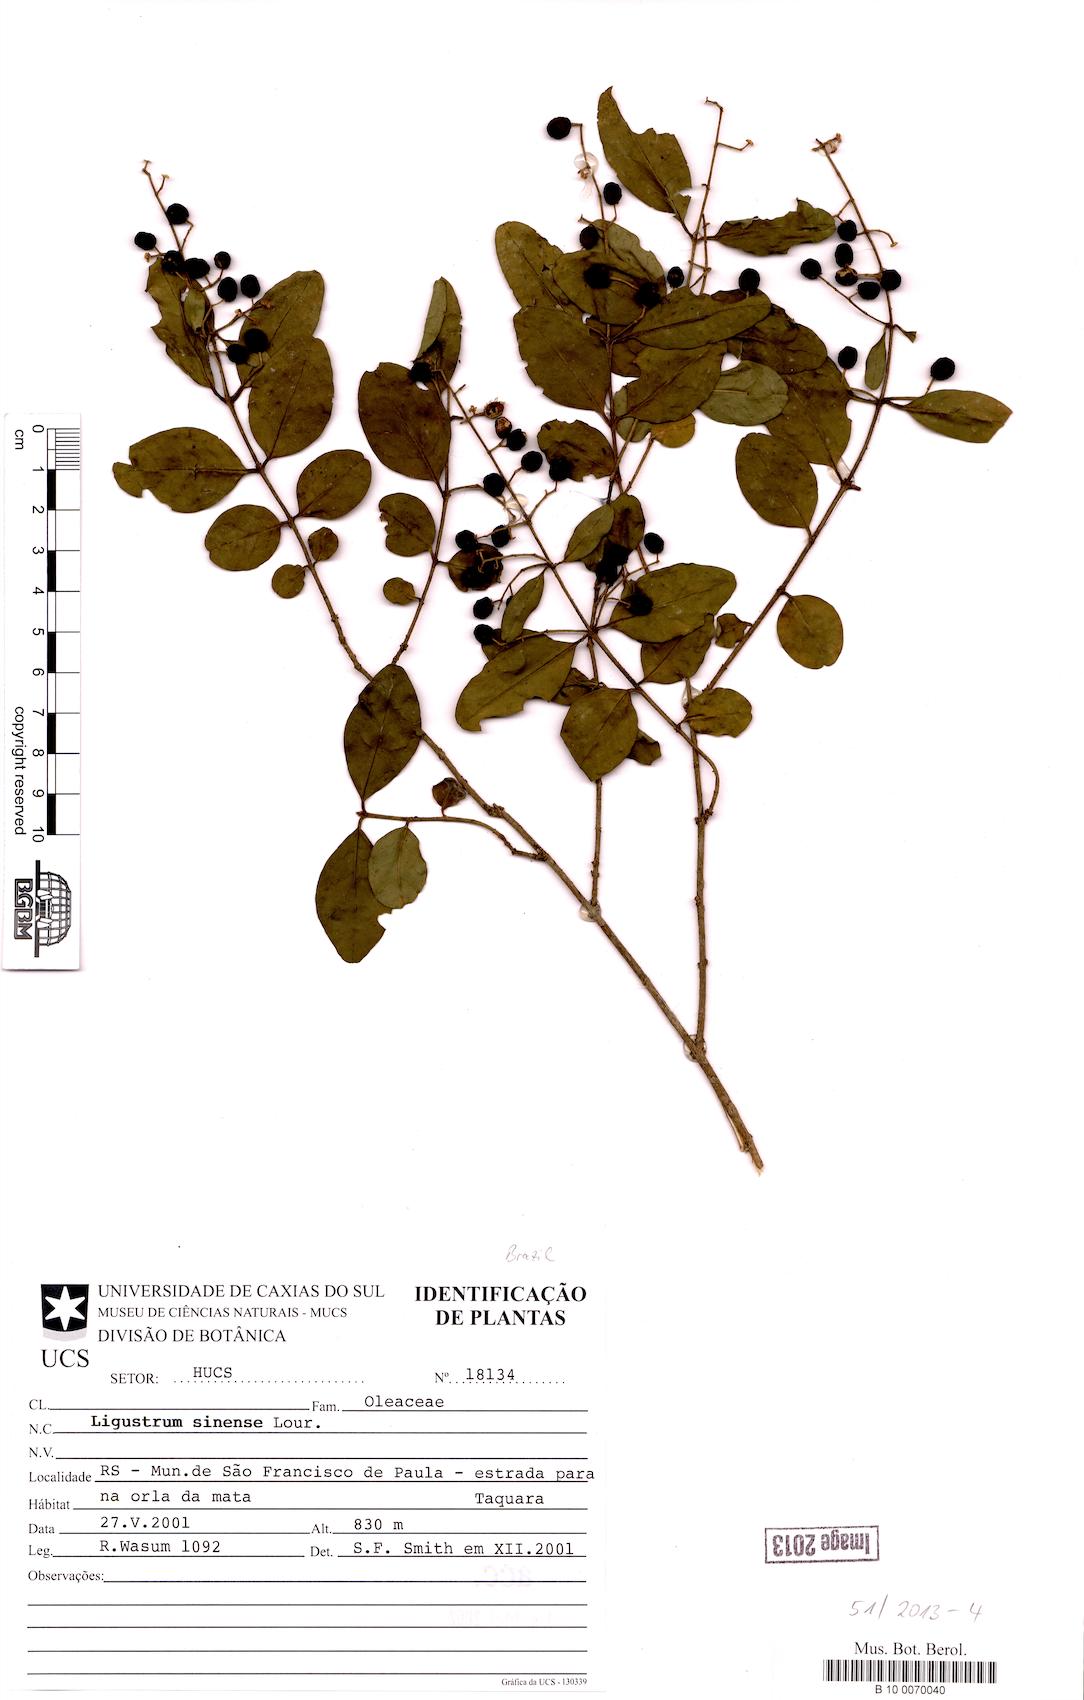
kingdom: Plantae
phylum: Tracheophyta
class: Magnoliopsida
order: Lamiales
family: Oleaceae
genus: Ligustrum
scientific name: Ligustrum sinense
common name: Chinese privet
